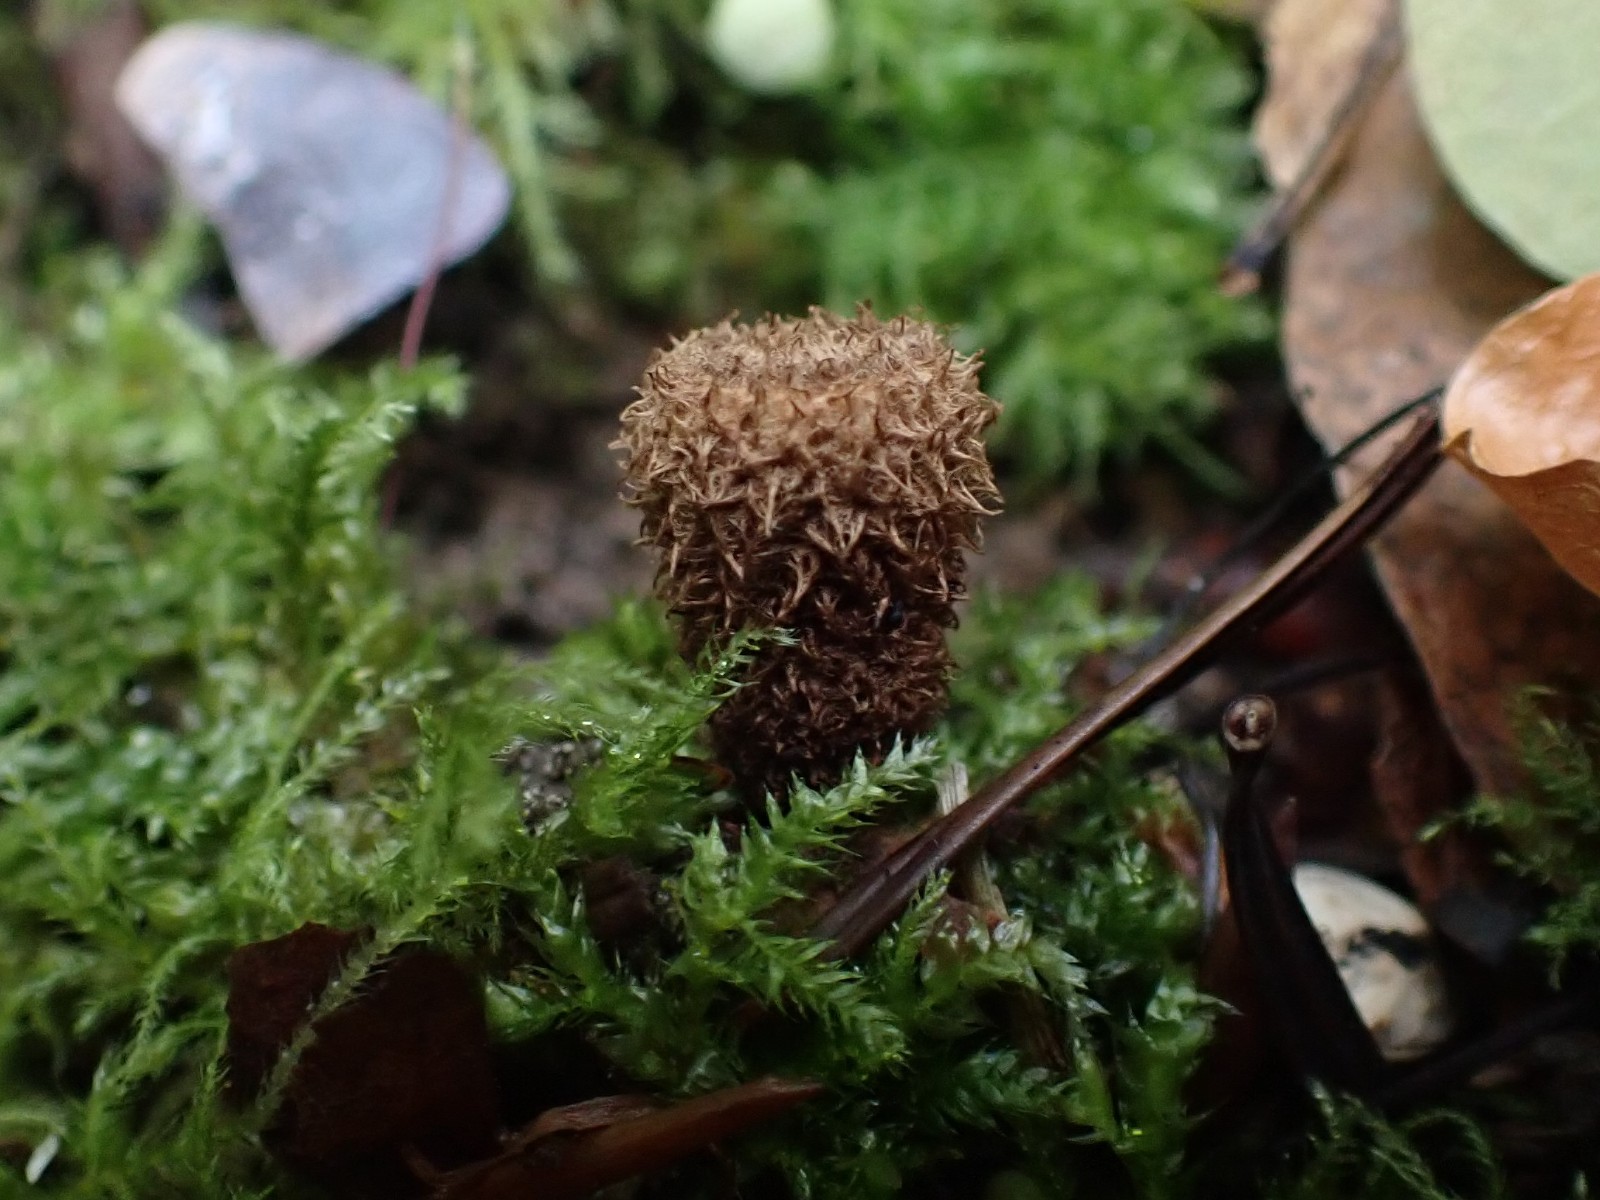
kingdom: Fungi
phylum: Basidiomycota
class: Agaricomycetes
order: Agaricales
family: Agaricaceae
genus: Cyathus
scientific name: Cyathus striatus
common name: stribet redesvamp
